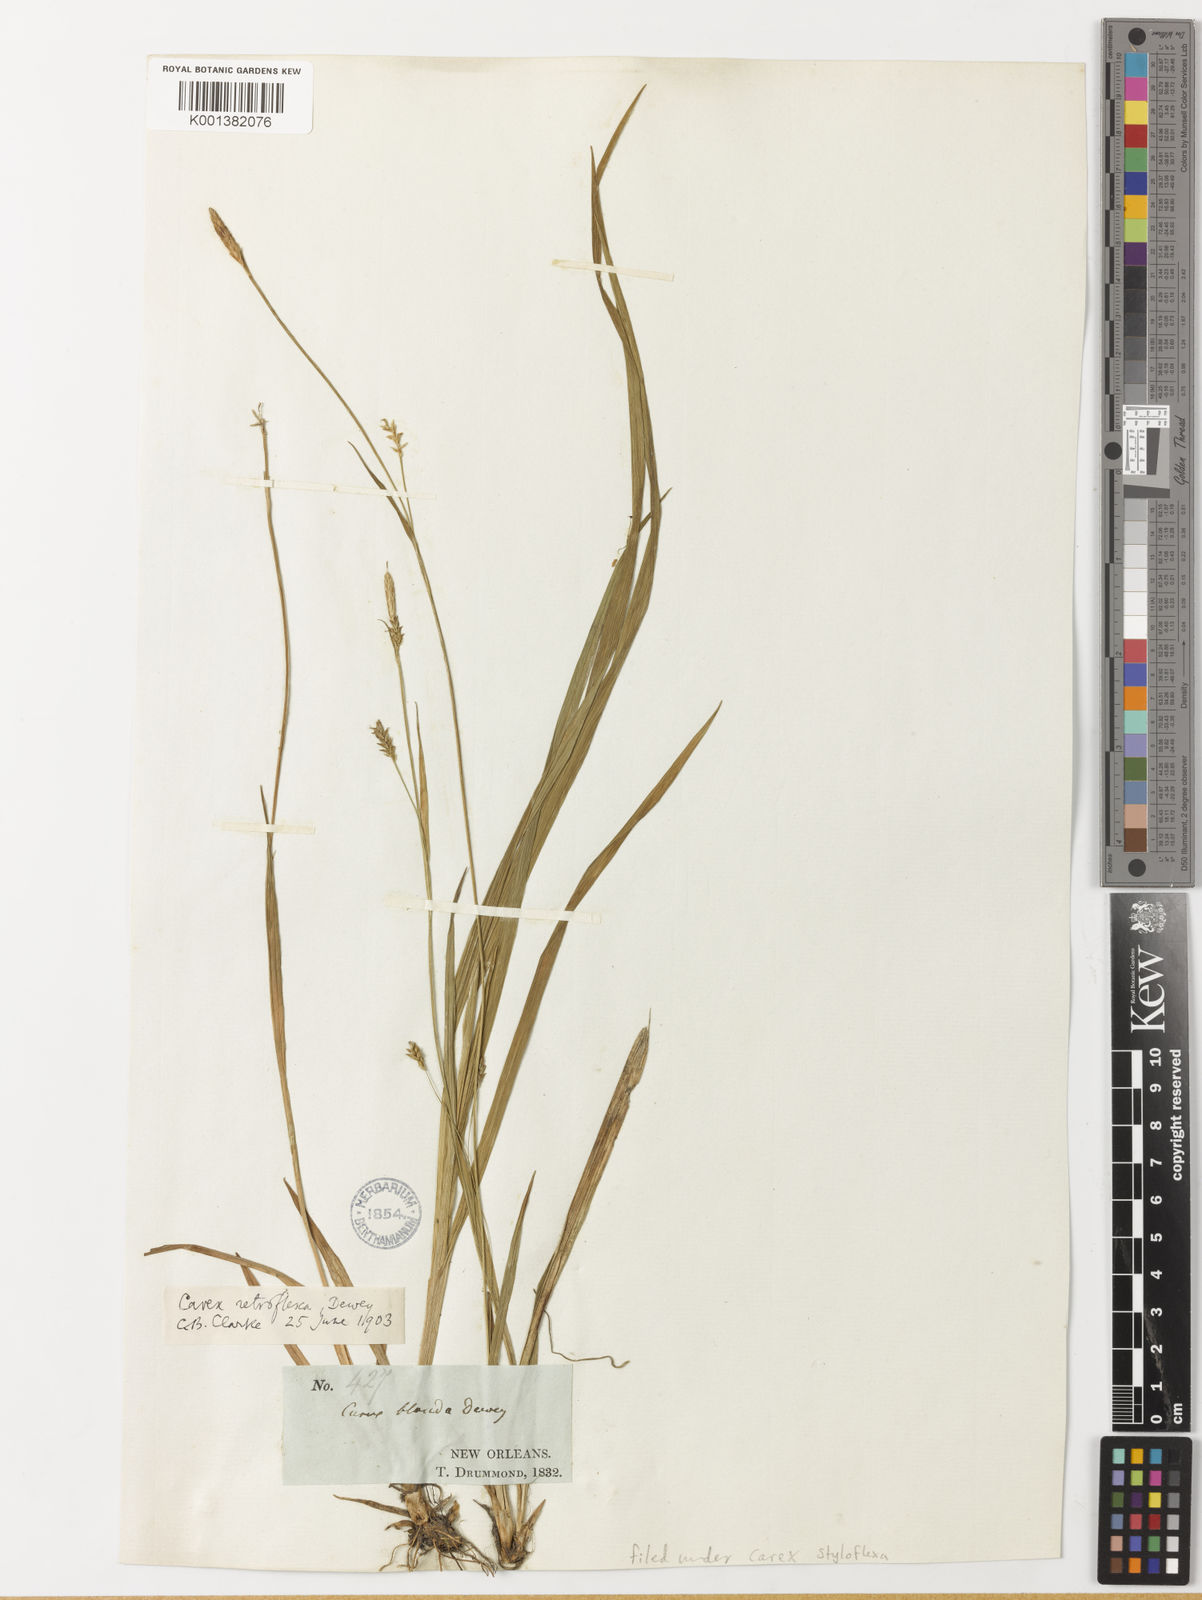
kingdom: Plantae
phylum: Tracheophyta
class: Liliopsida
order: Poales
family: Cyperaceae
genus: Carex
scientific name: Carex styloflexa
